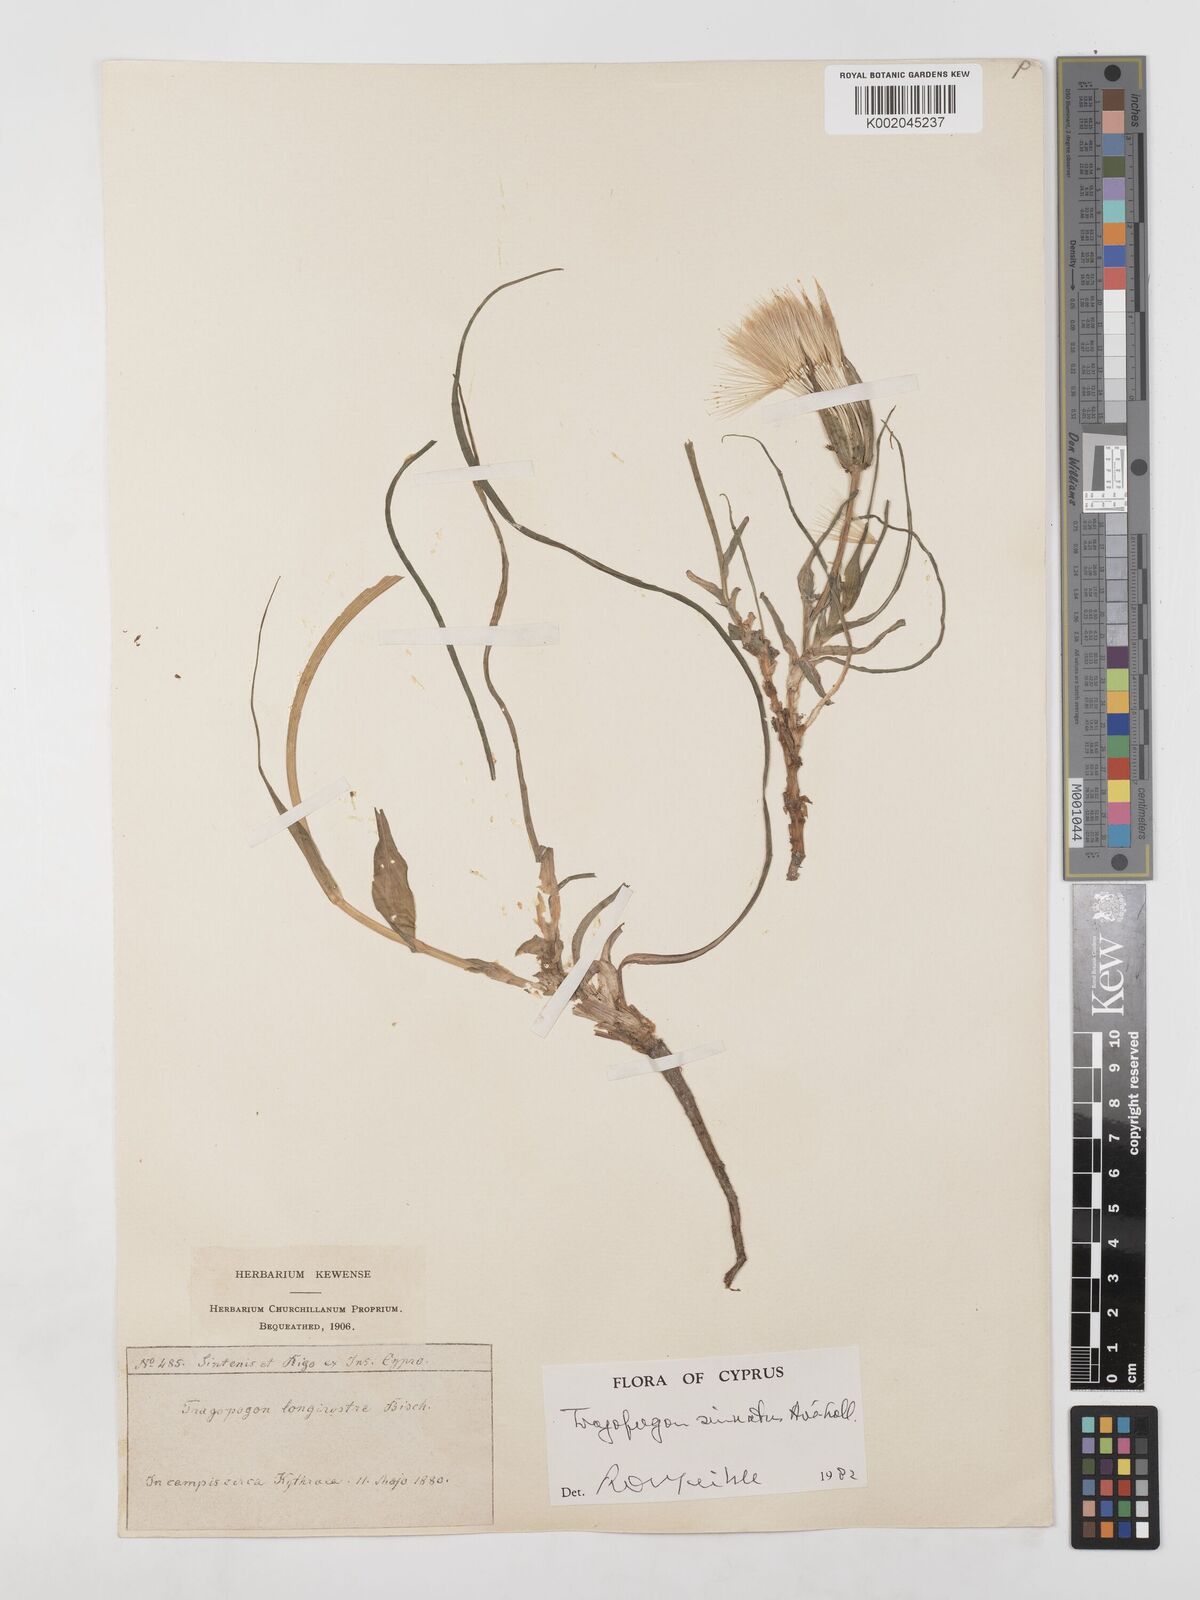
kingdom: Plantae
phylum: Tracheophyta
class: Magnoliopsida
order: Asterales
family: Asteraceae
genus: Tragopogon
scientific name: Tragopogon porrifolius
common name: Salsify
